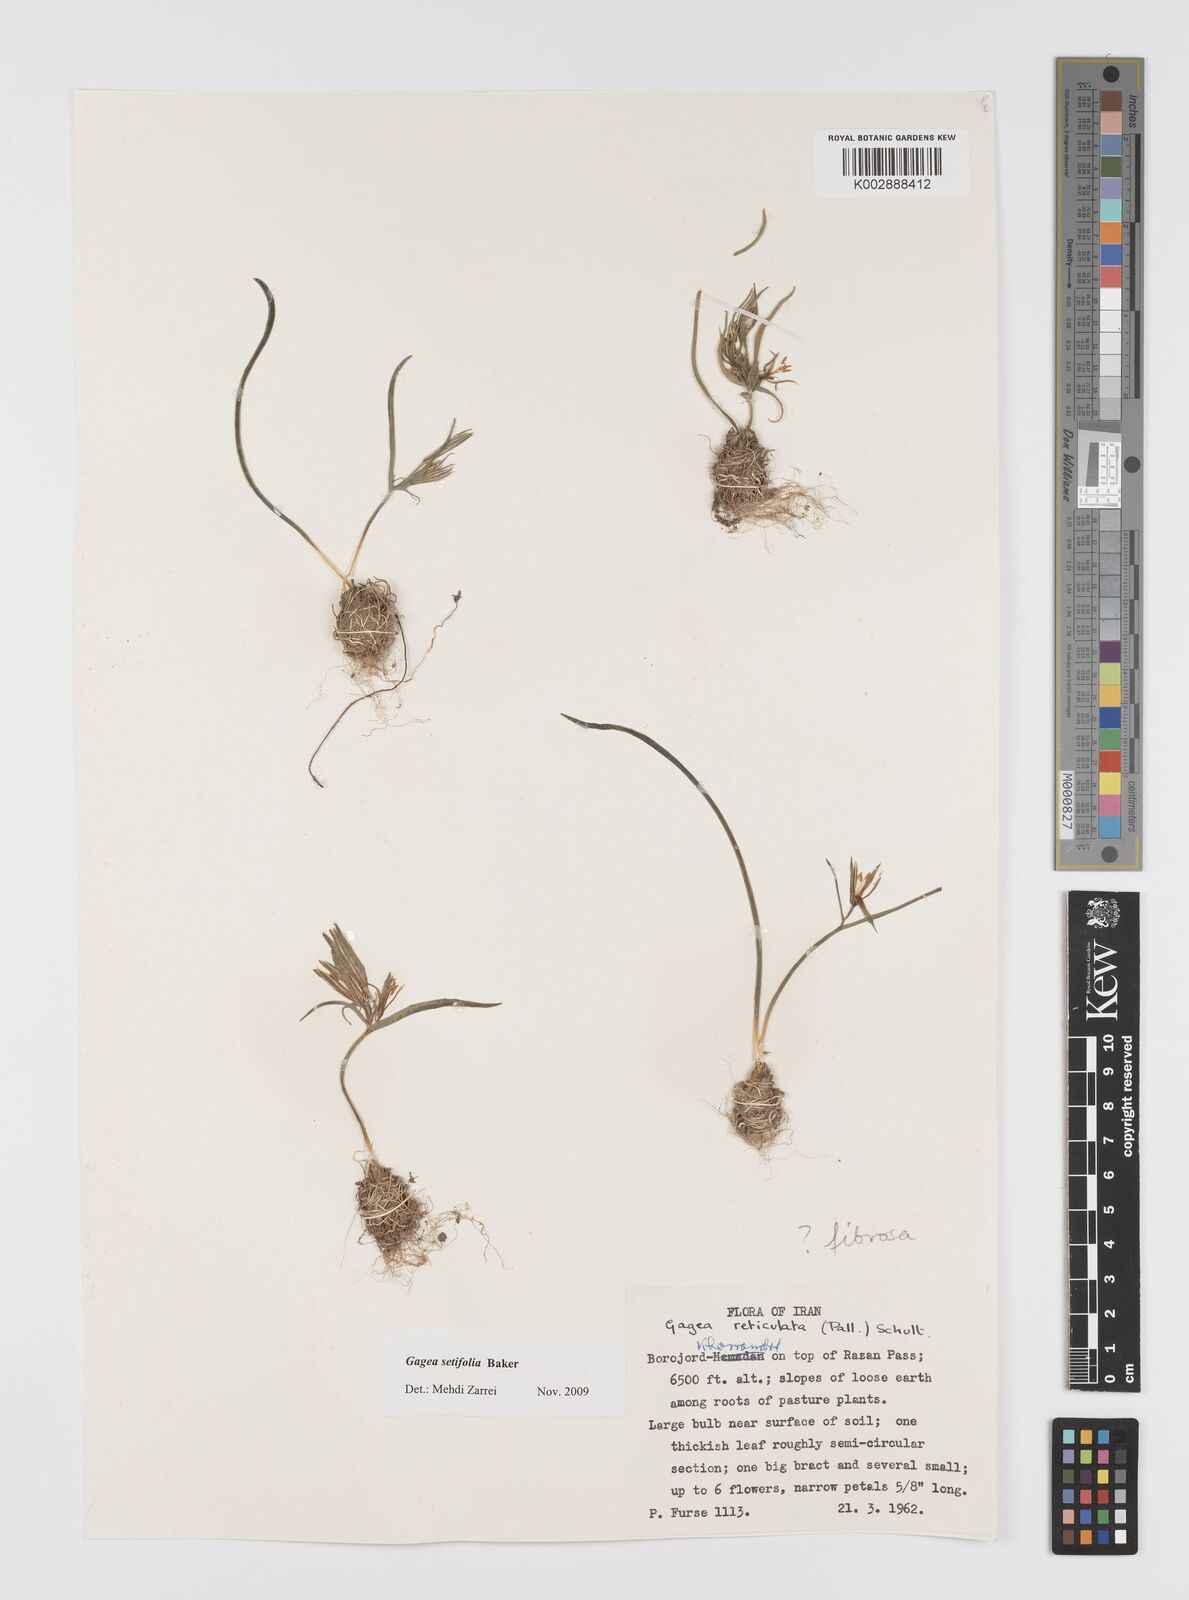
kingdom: Plantae
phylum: Tracheophyta
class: Liliopsida
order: Liliales
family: Liliaceae
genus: Gagea
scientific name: Gagea setifolia
